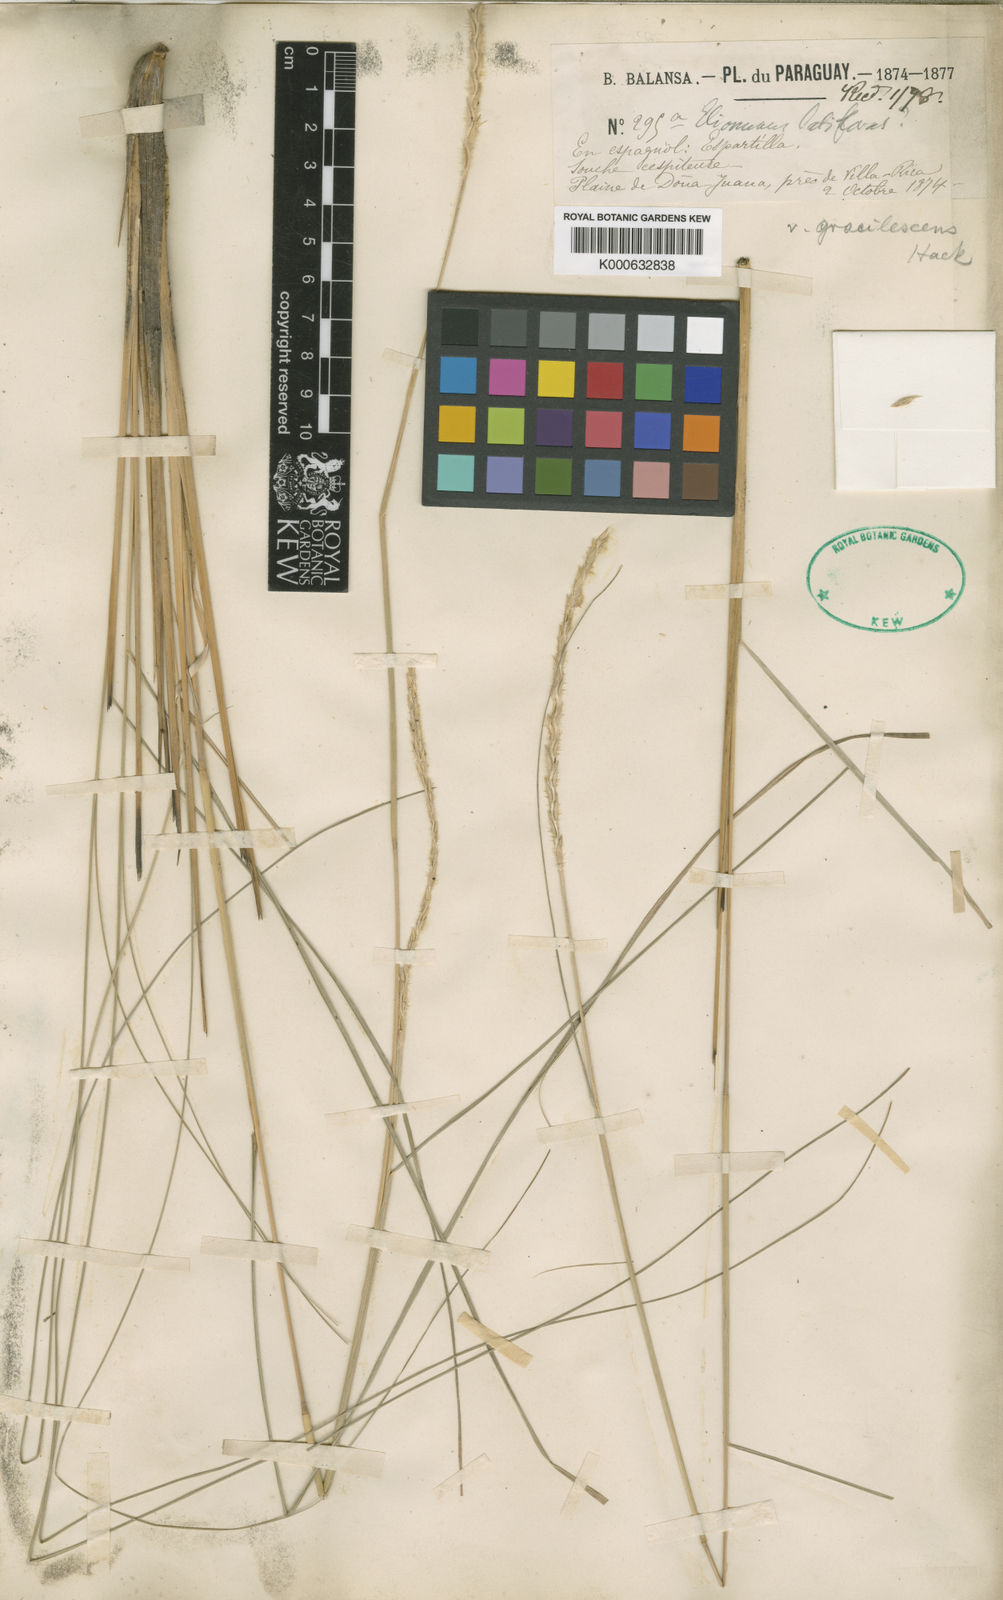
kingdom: Plantae
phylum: Tracheophyta
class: Liliopsida
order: Poales
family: Poaceae
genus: Elionurus
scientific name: Elionurus muticus
